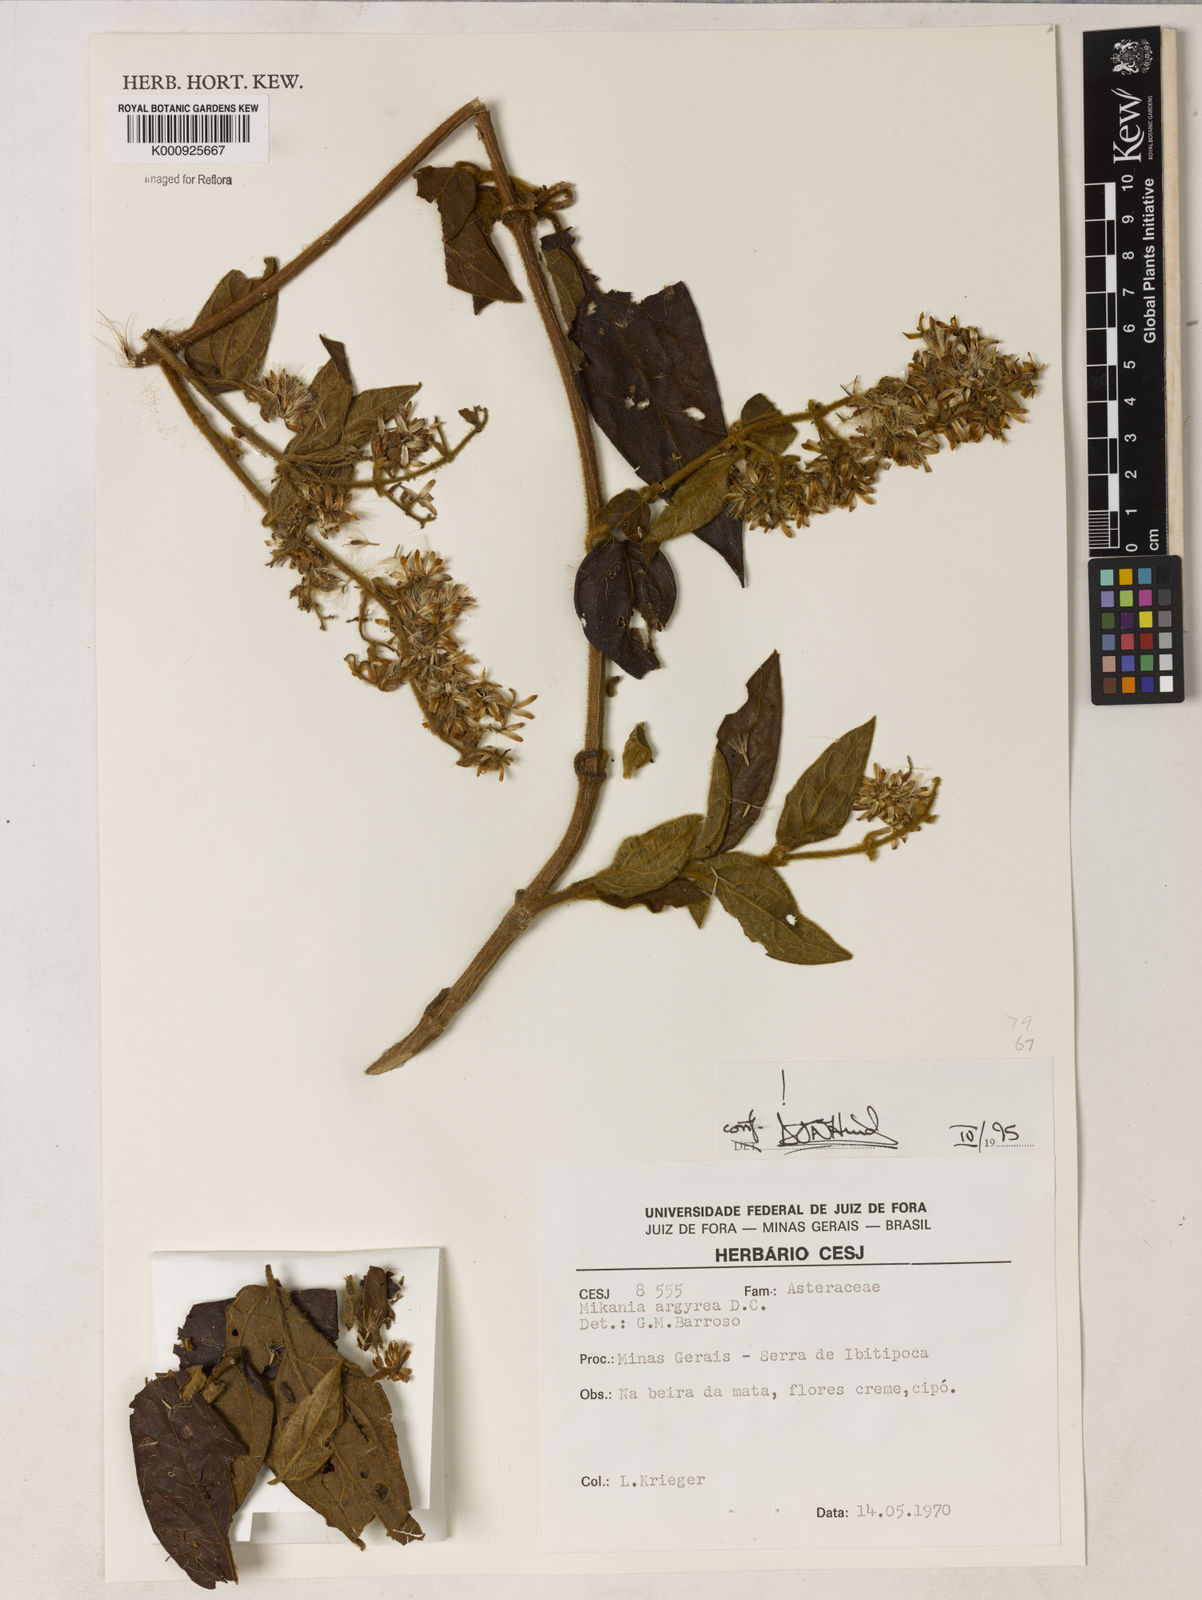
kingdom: Plantae
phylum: Tracheophyta
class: Magnoliopsida
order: Asterales
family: Asteraceae
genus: Mikania
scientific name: Mikania
